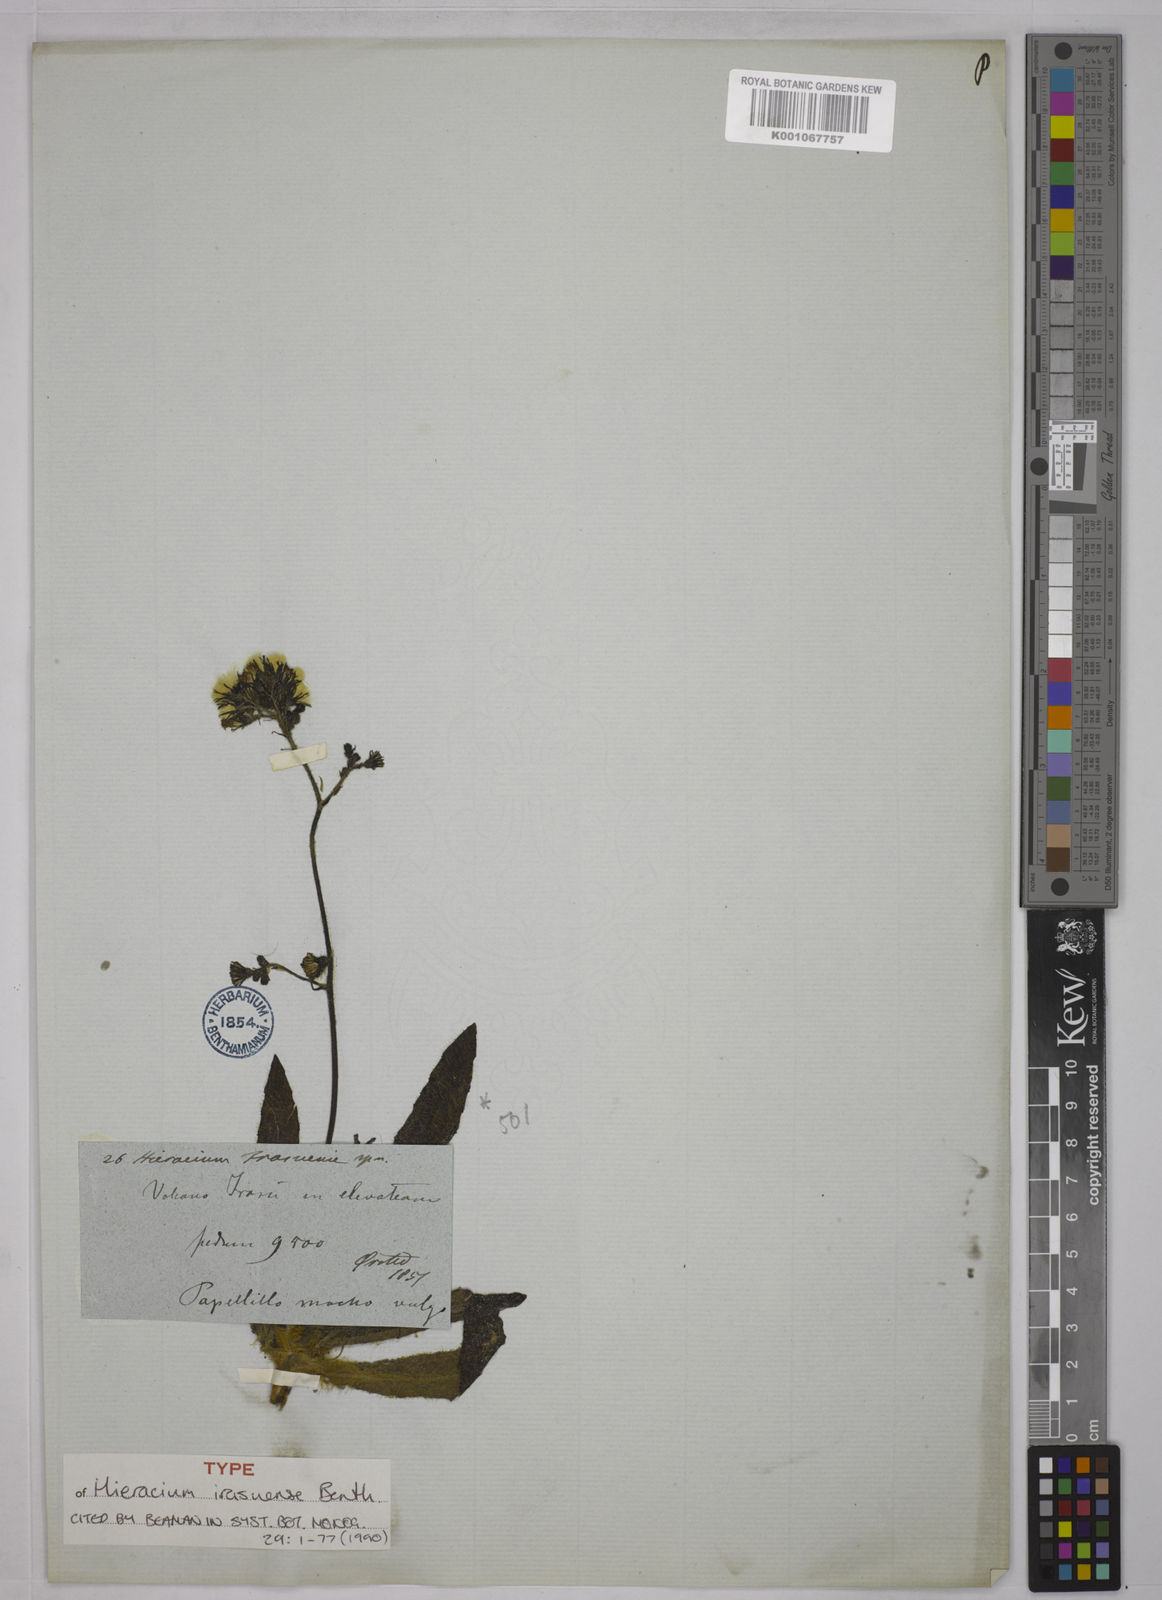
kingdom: Plantae
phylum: Tracheophyta
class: Magnoliopsida
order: Asterales
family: Asteraceae
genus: Hieracium
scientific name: Hieracium irasuense
